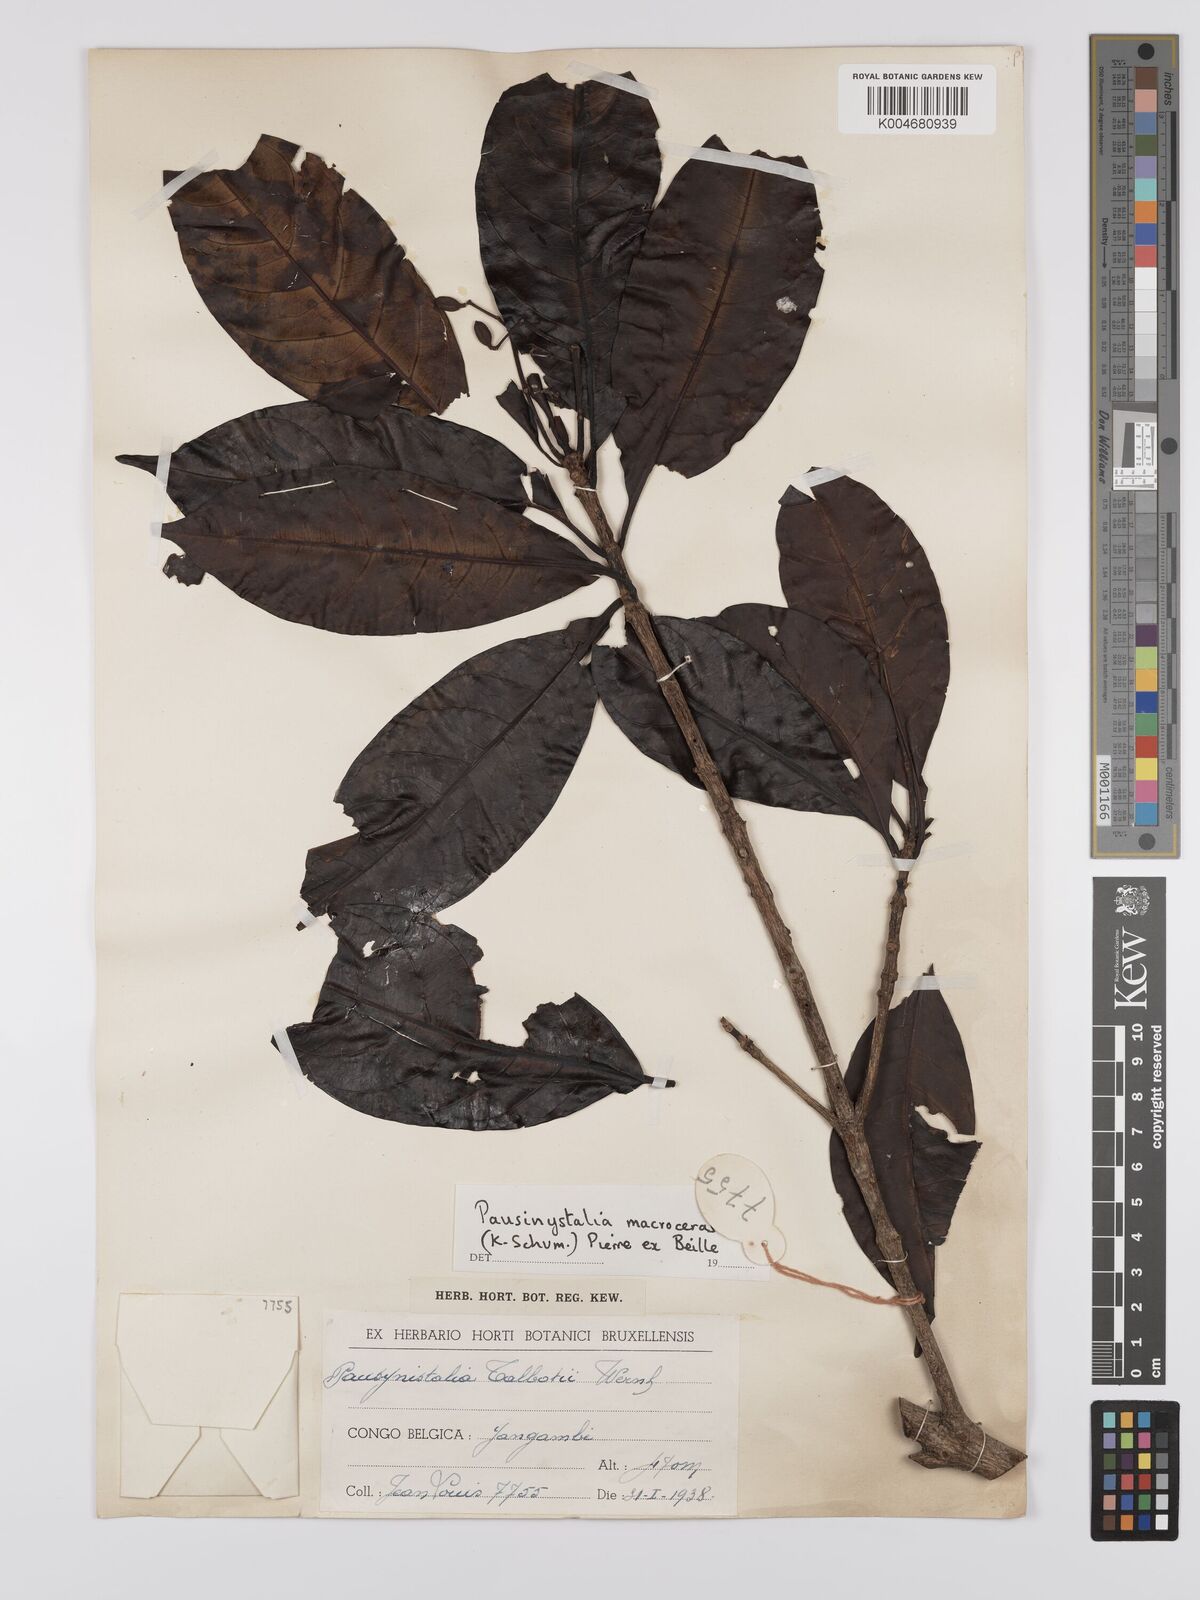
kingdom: Plantae
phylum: Tracheophyta
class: Magnoliopsida
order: Gentianales
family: Rubiaceae
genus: Corynanthe
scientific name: Corynanthe macroceras
